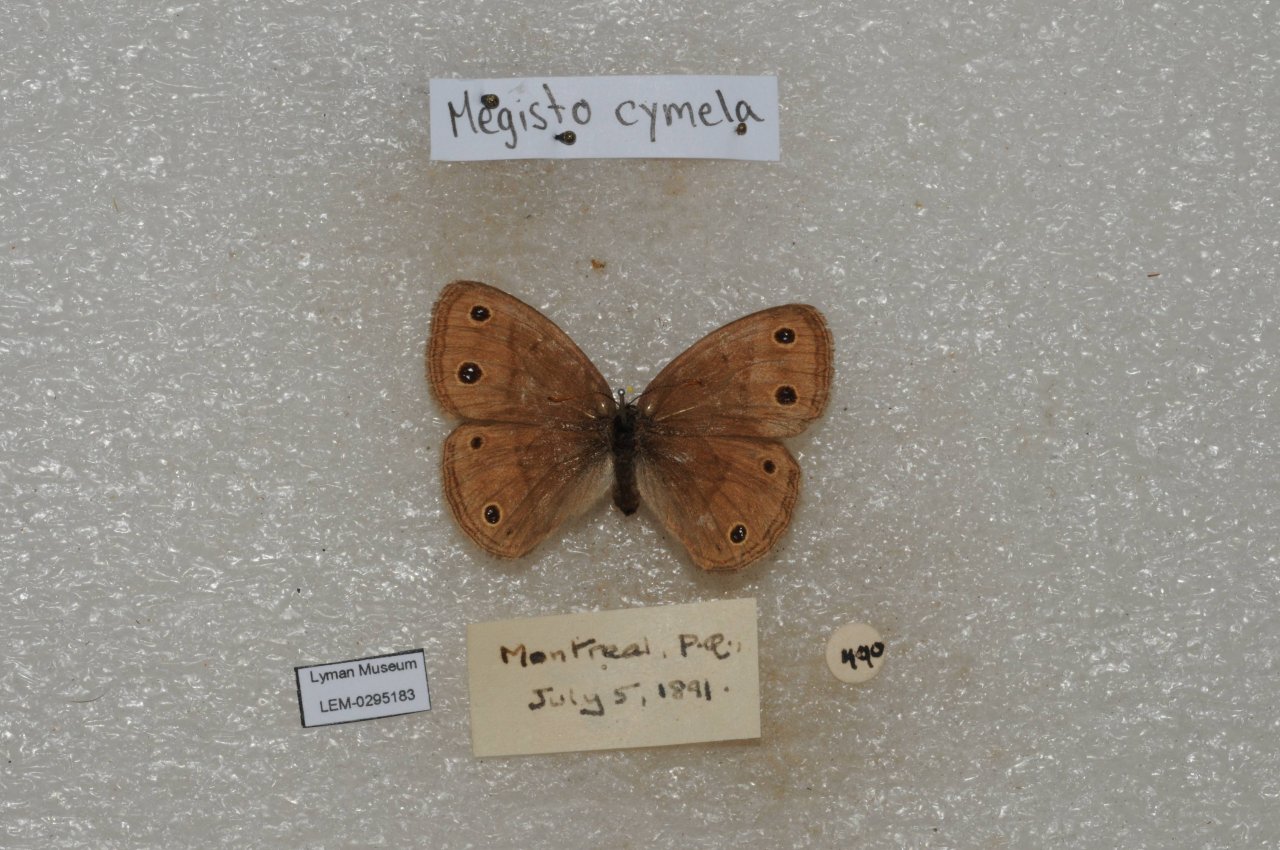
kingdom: Animalia
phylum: Arthropoda
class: Insecta
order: Lepidoptera
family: Nymphalidae
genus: Euptychia
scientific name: Euptychia cymela
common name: Little Wood Satyr
